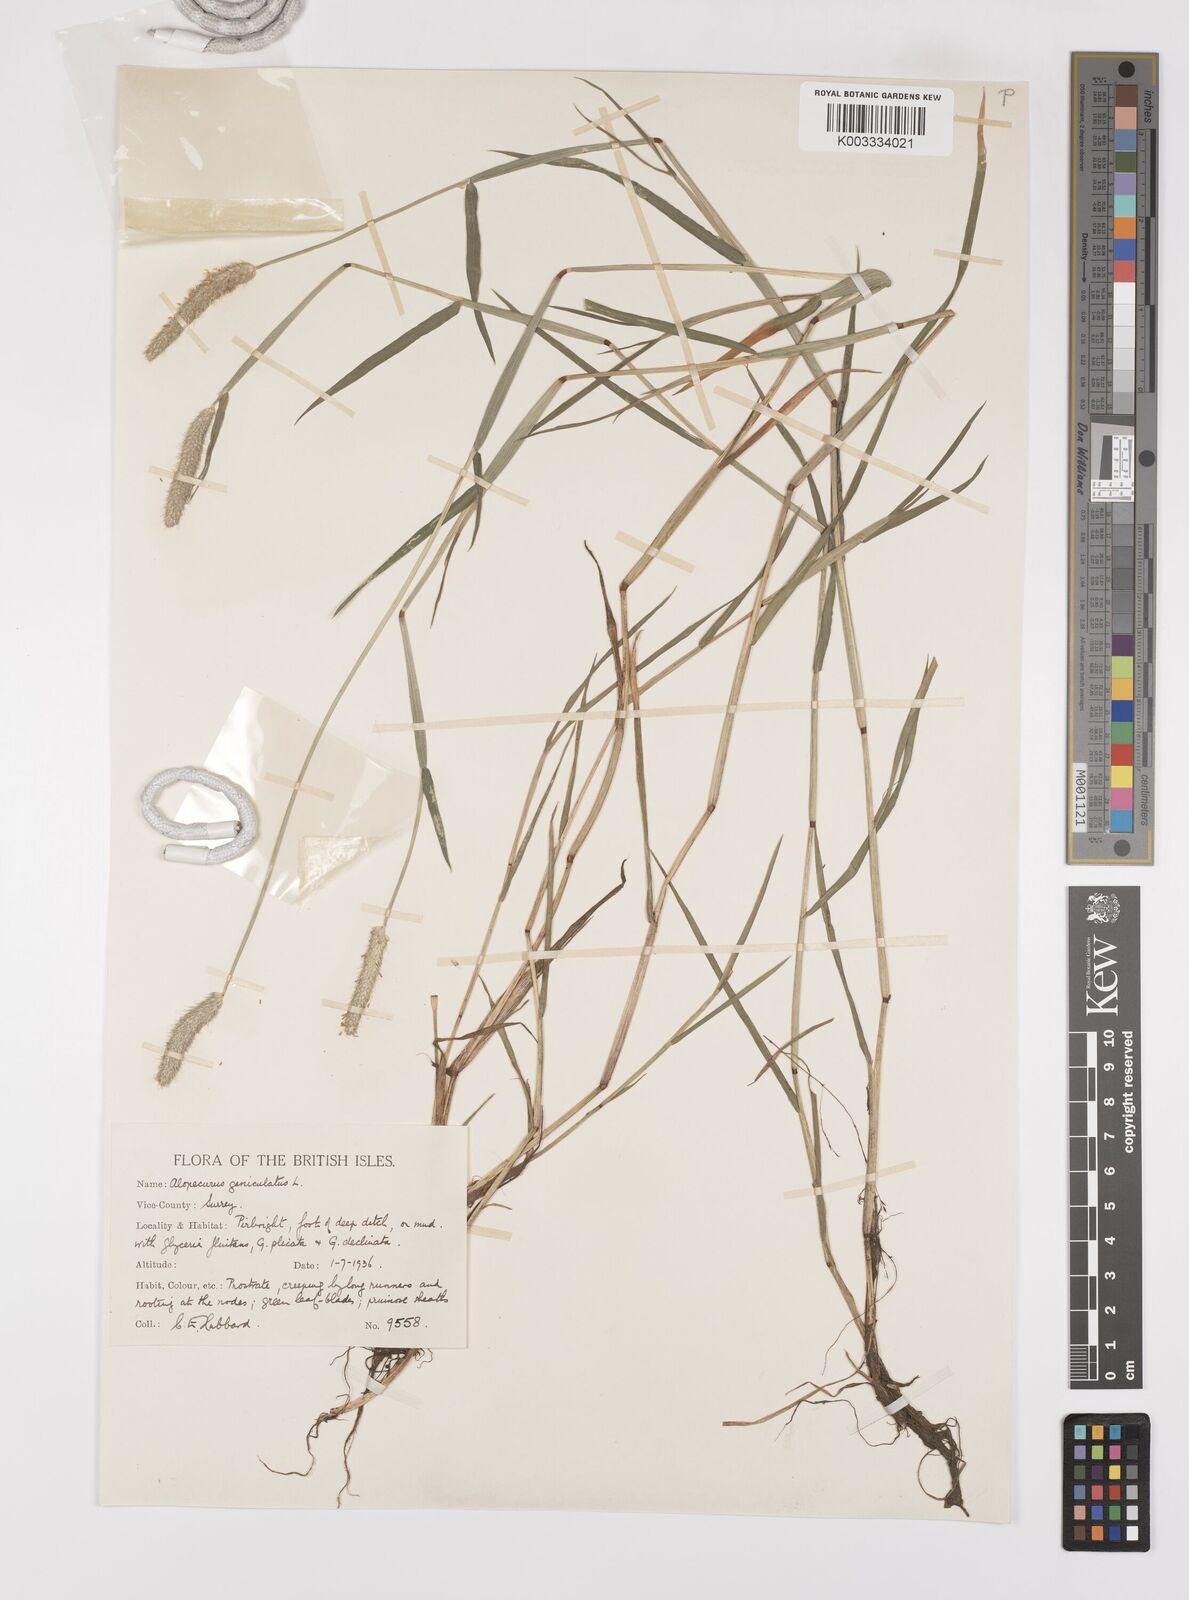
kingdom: Plantae
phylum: Tracheophyta
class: Liliopsida
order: Poales
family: Poaceae
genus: Alopecurus
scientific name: Alopecurus geniculatus
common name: Water foxtail
